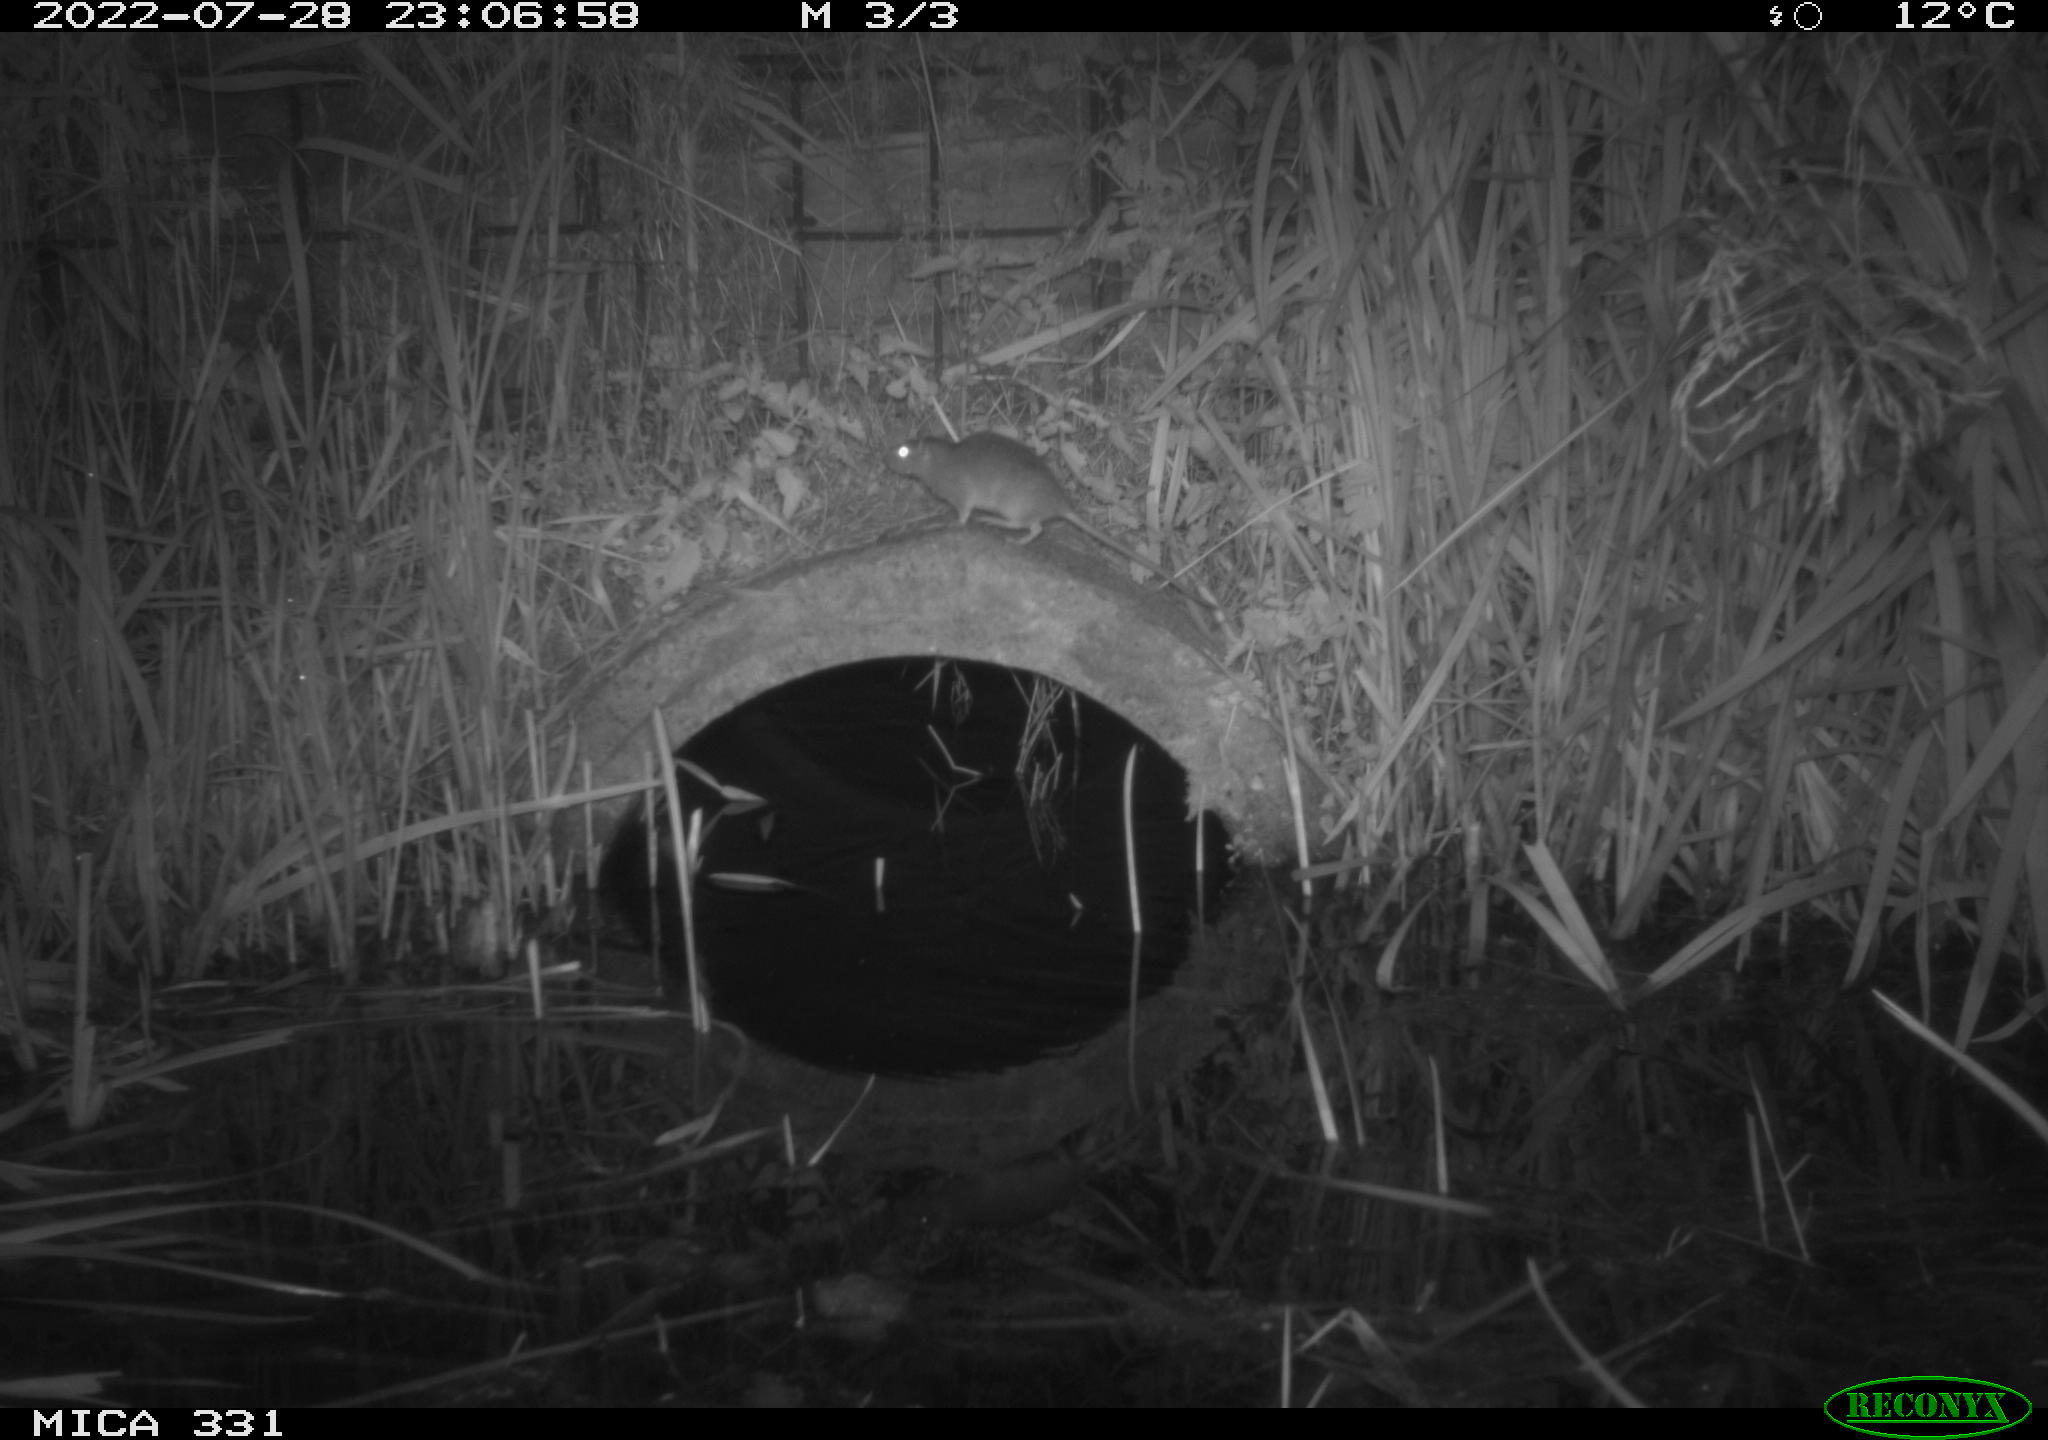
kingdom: Animalia
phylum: Chordata
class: Mammalia
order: Rodentia
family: Muridae
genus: Rattus
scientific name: Rattus norvegicus
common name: Brown rat
